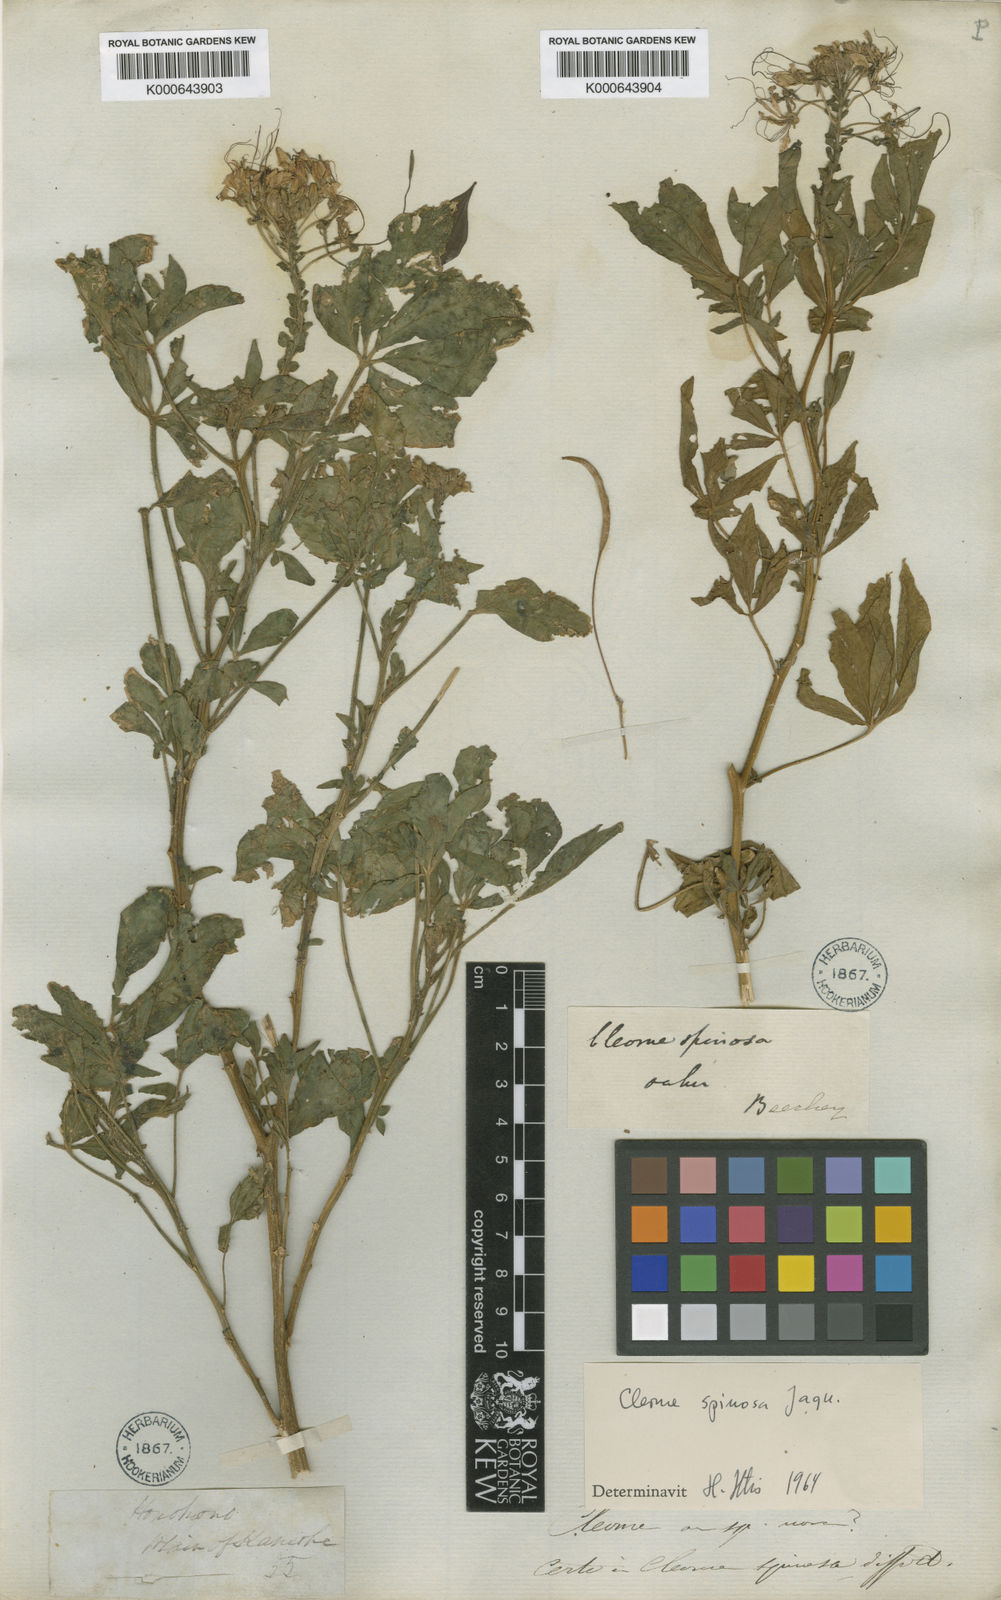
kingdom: Plantae
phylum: Tracheophyta
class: Magnoliopsida
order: Brassicales
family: Cleomaceae
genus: Tarenaya
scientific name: Tarenaya spinosa
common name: Spiny spiderflower
